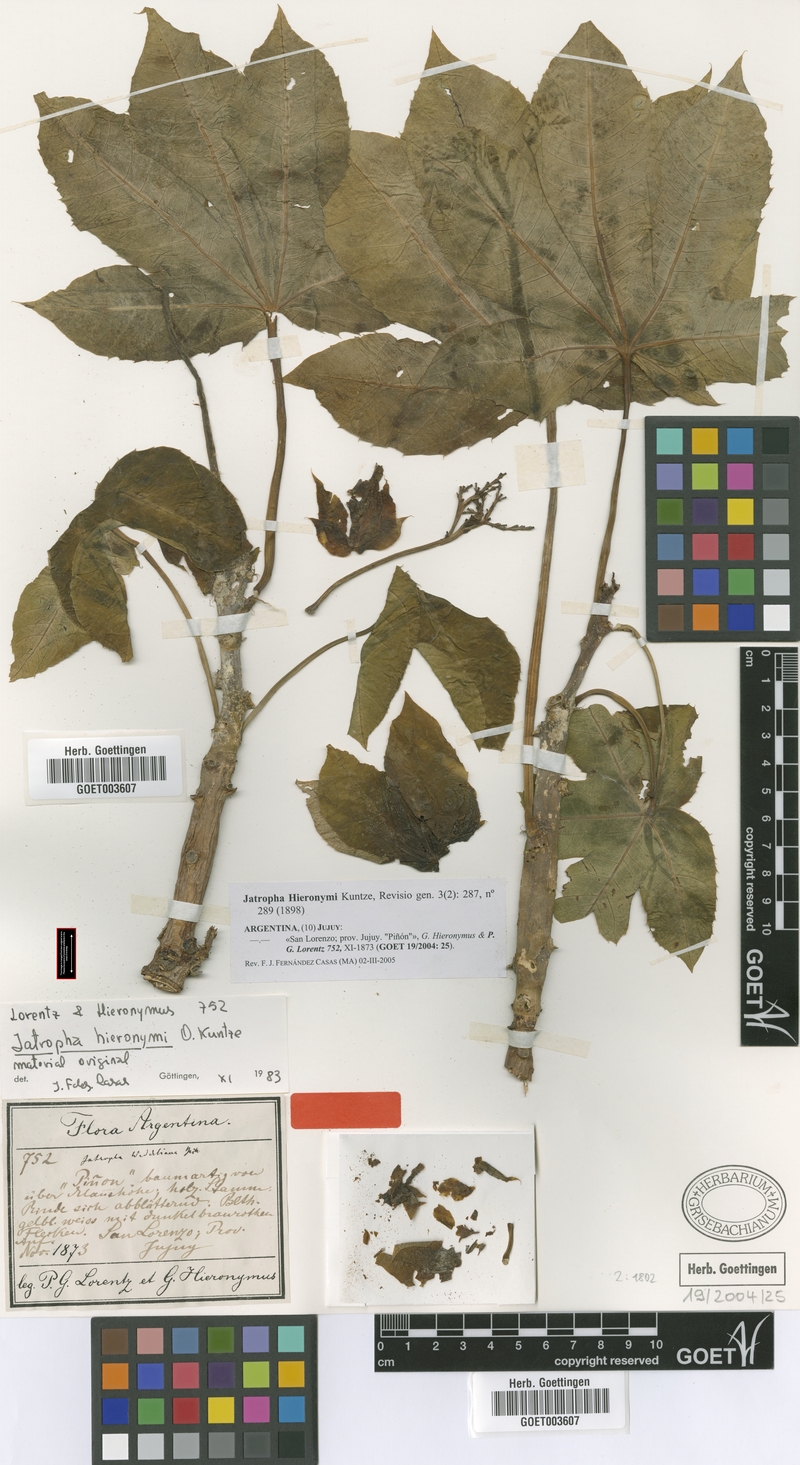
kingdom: Plantae
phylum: Tracheophyta
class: Magnoliopsida
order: Malpighiales
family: Euphorbiaceae
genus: Jatropha
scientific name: Jatropha hieronymi
